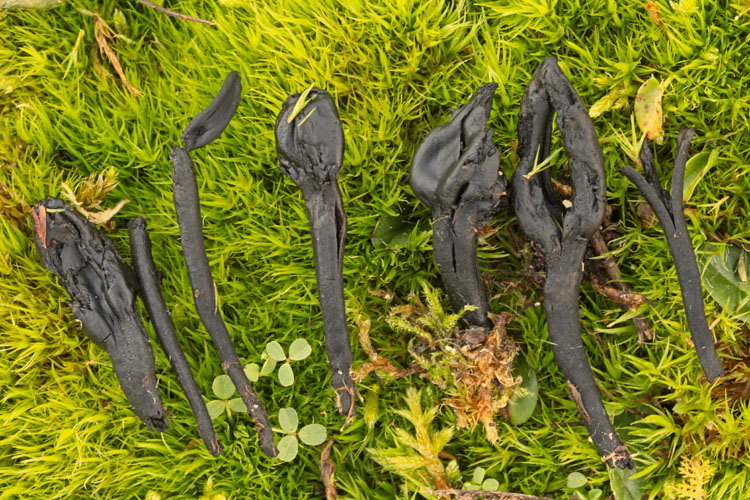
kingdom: Fungi
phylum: Ascomycota
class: Geoglossomycetes
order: Geoglossales
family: Geoglossaceae
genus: Trichoglossum
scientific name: Trichoglossum hirsutum
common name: håret jordtunge
